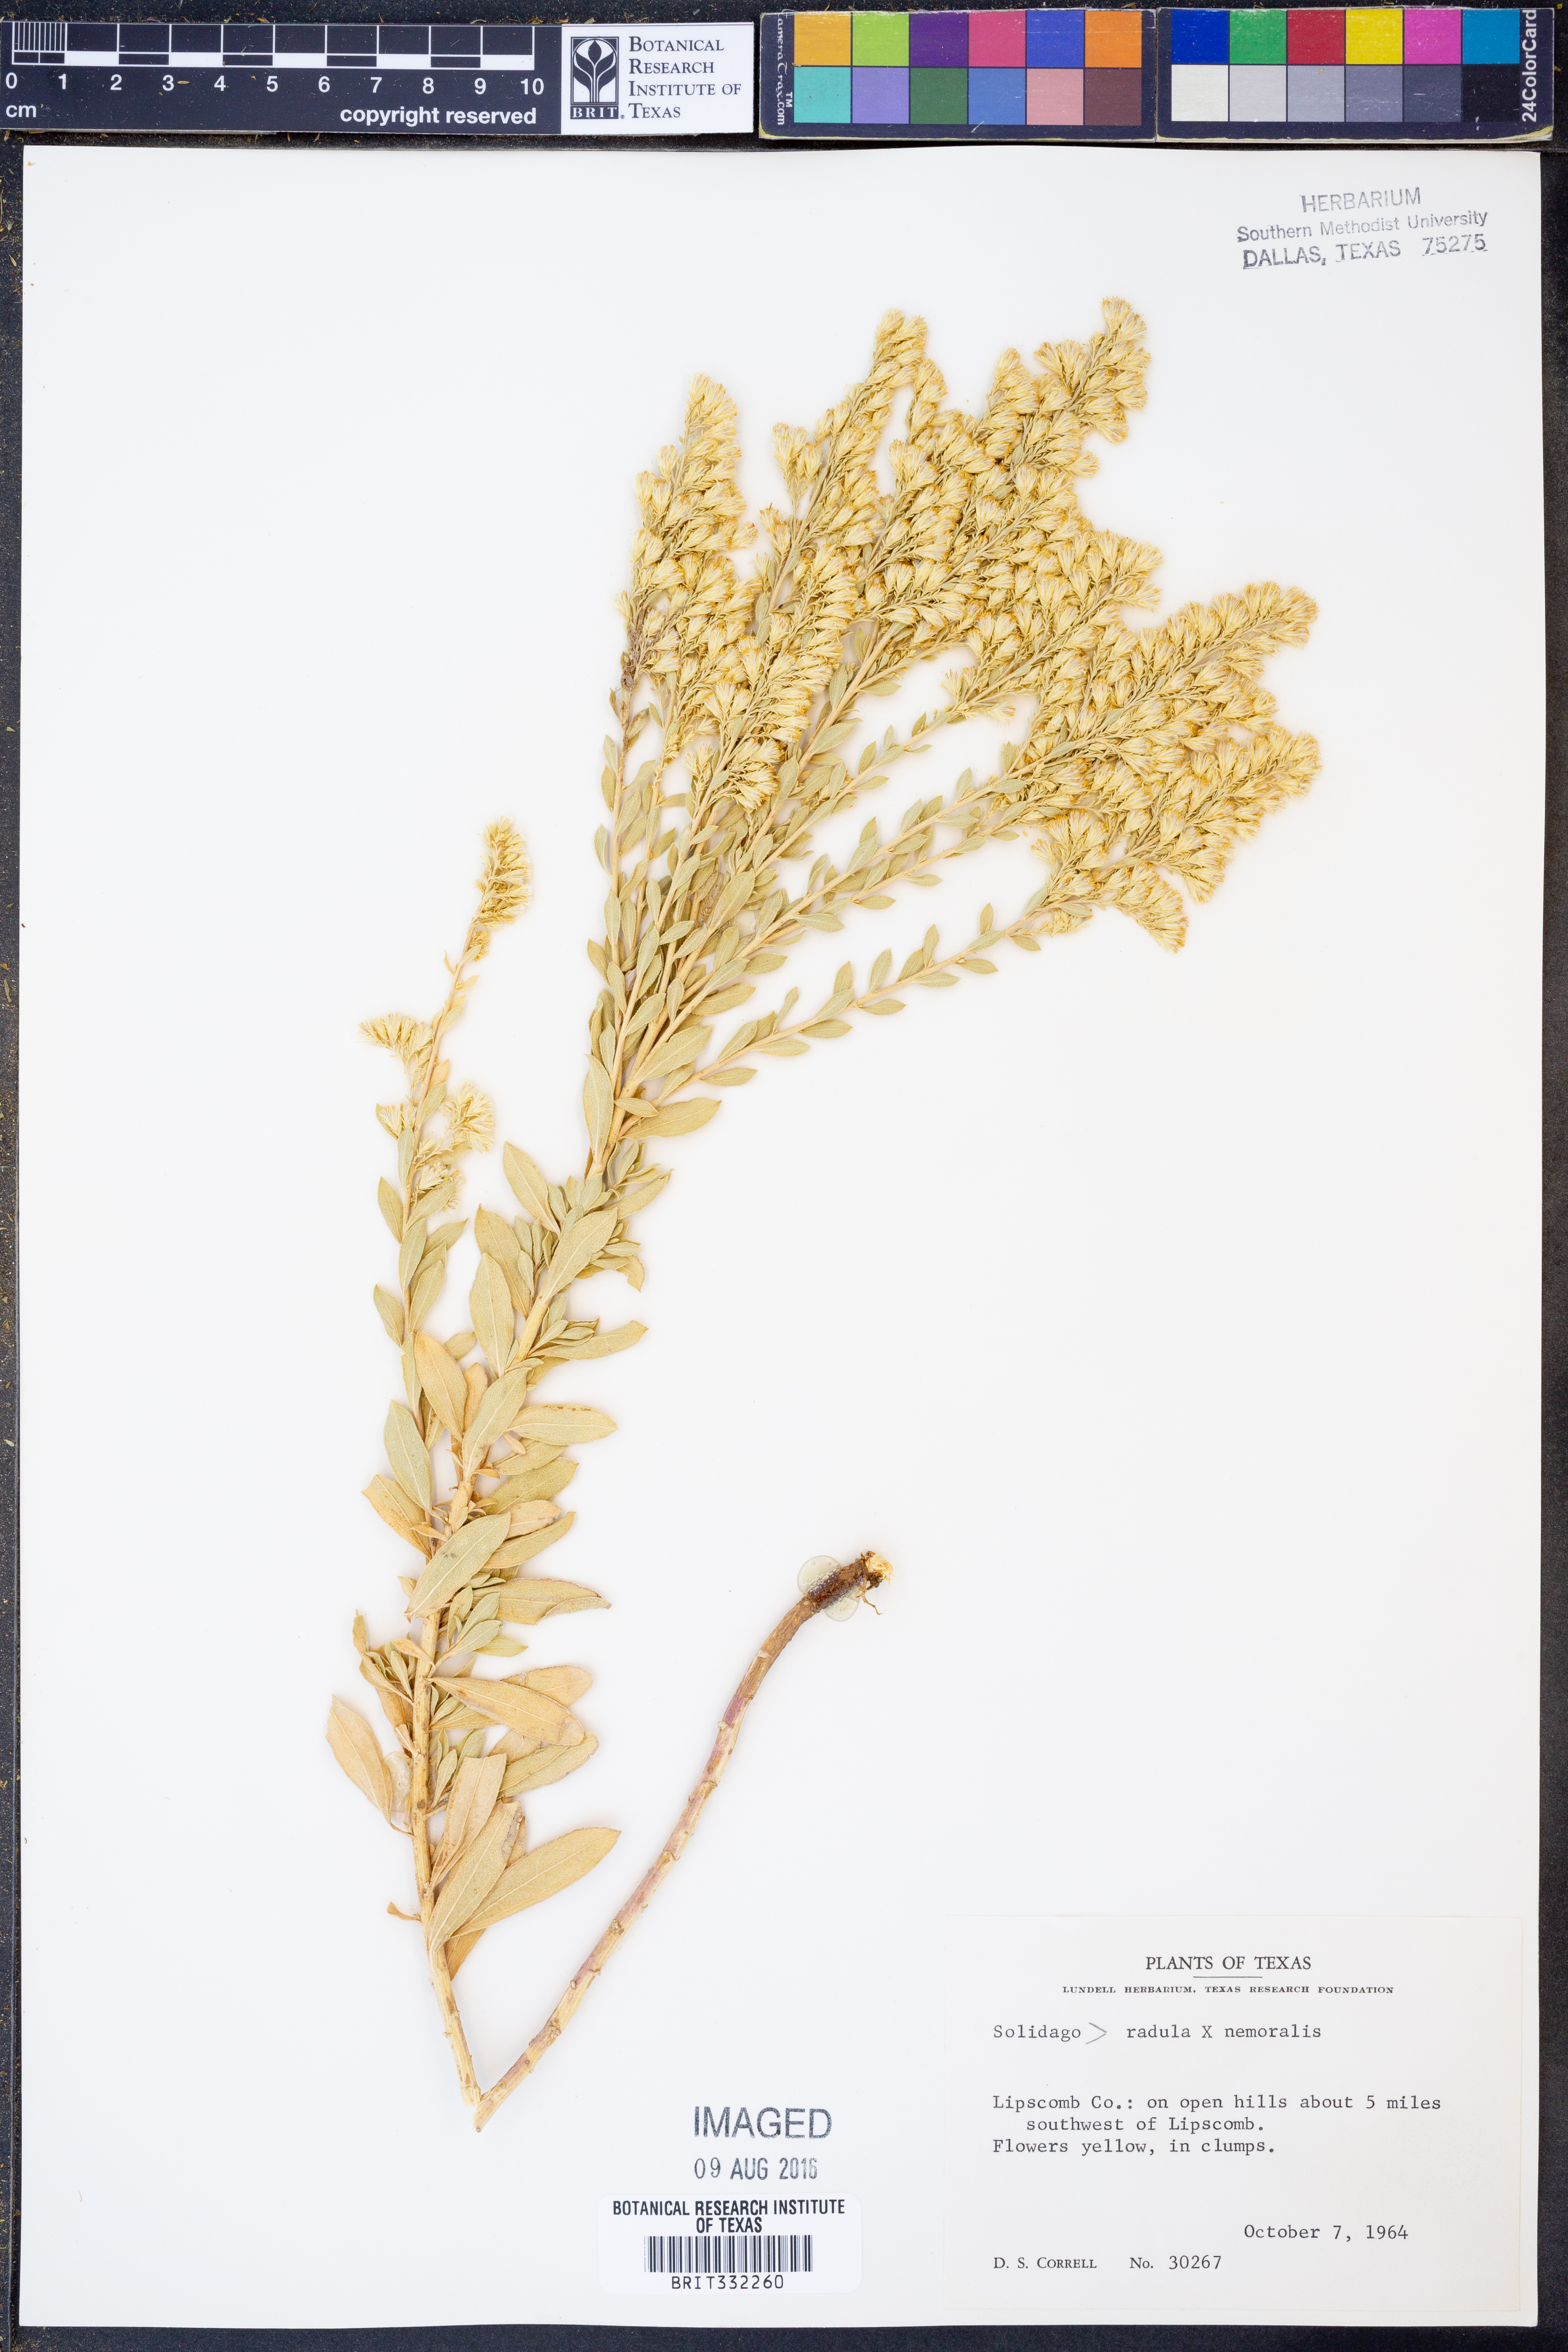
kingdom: Plantae
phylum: Tracheophyta
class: Magnoliopsida
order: Asterales
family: Asteraceae
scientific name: Asteraceae
